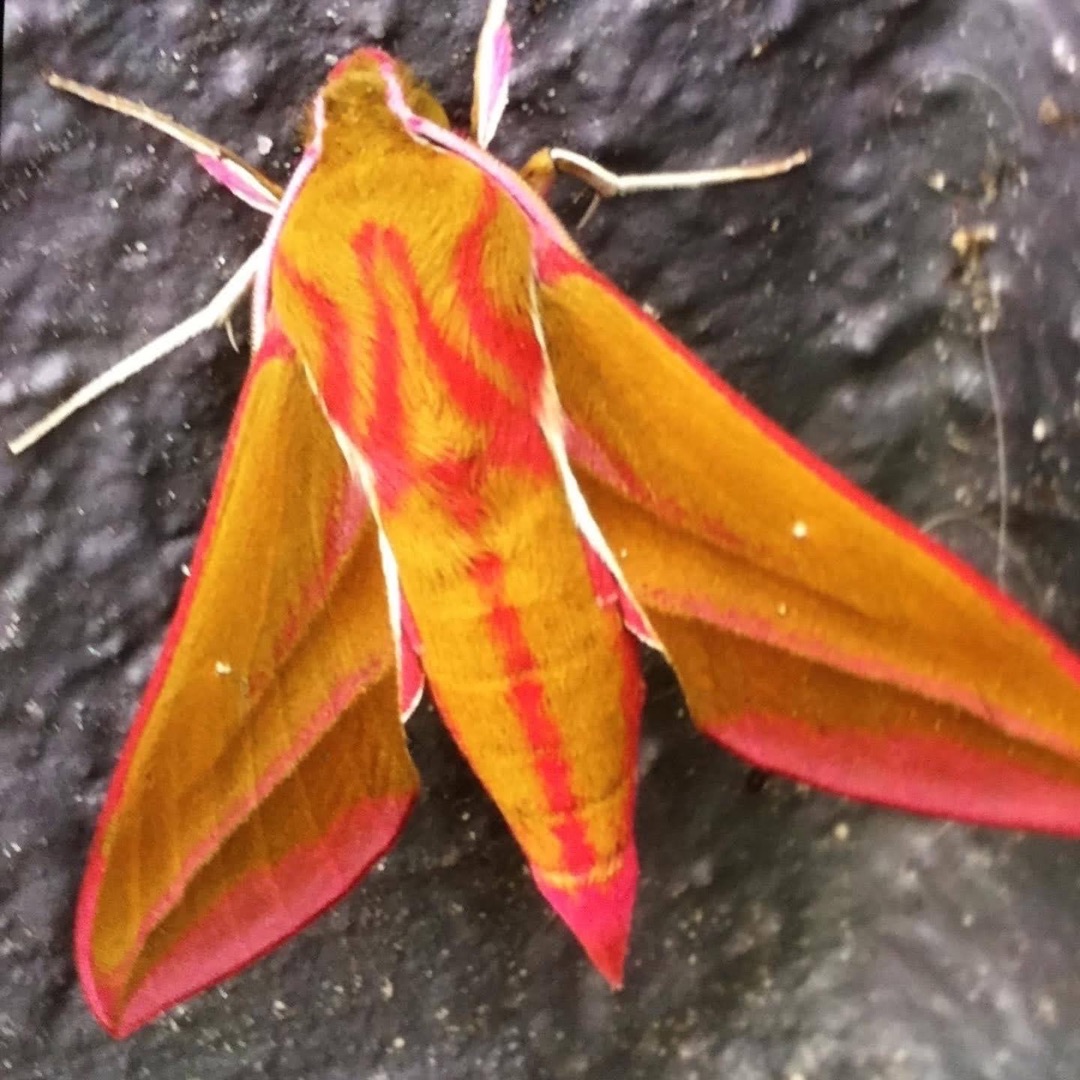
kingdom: Animalia
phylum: Arthropoda
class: Insecta
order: Lepidoptera
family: Sphingidae
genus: Deilephila
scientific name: Deilephila elpenor
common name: Dueurtsværmer
